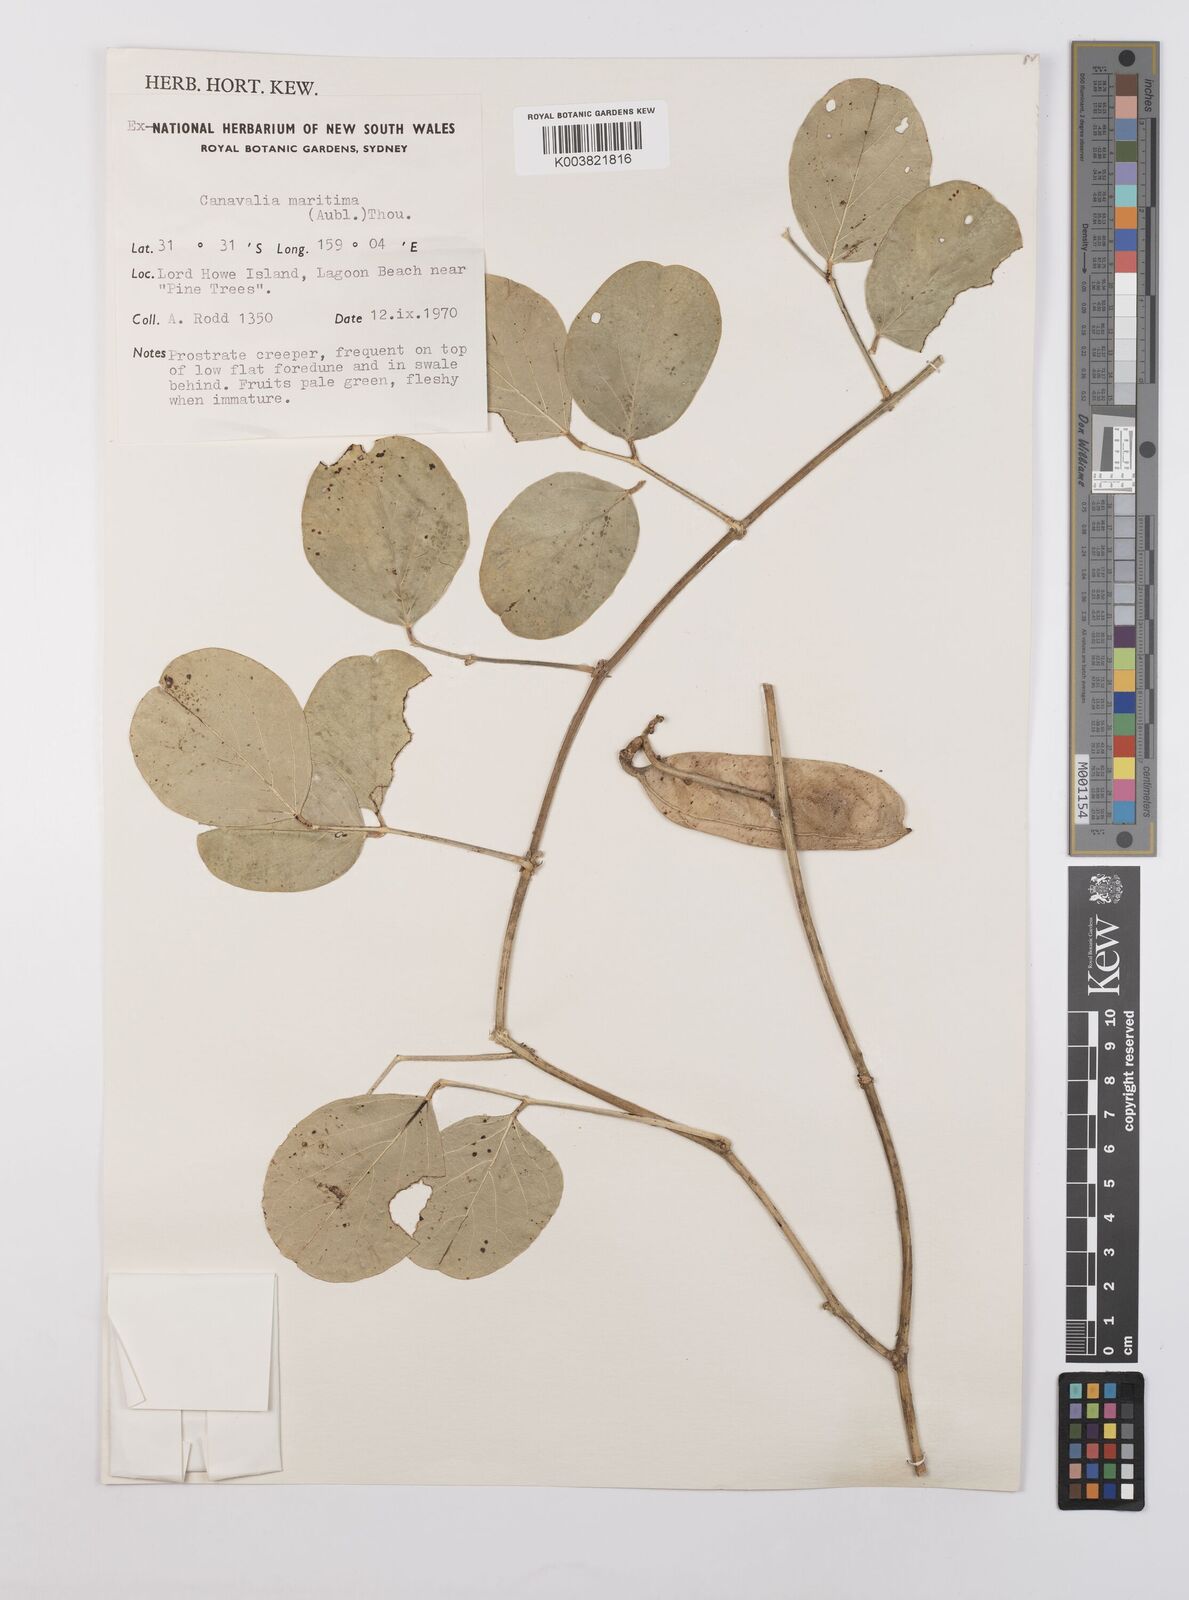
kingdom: Plantae
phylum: Tracheophyta
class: Magnoliopsida
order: Fabales
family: Fabaceae
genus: Canavalia
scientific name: Canavalia rosea
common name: Beach-bean
